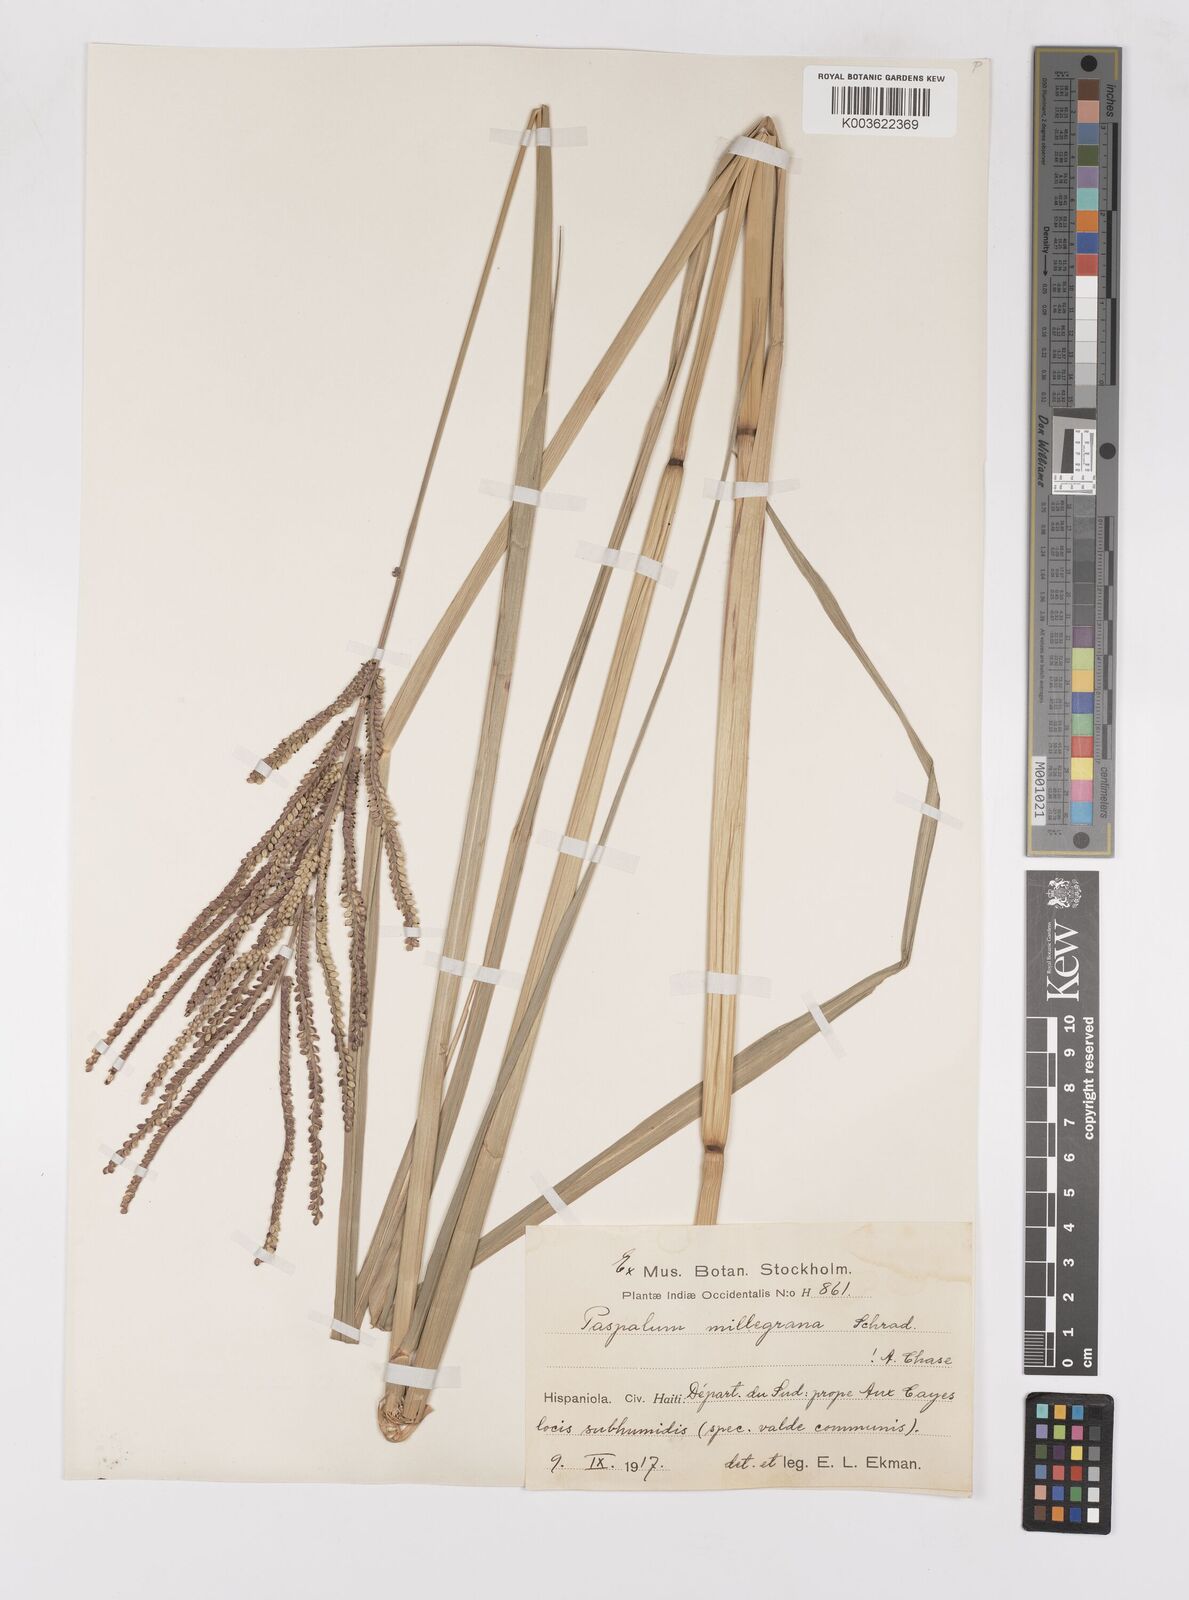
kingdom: Plantae
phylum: Tracheophyta
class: Liliopsida
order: Poales
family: Poaceae
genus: Paspalum
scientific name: Paspalum millegranum
